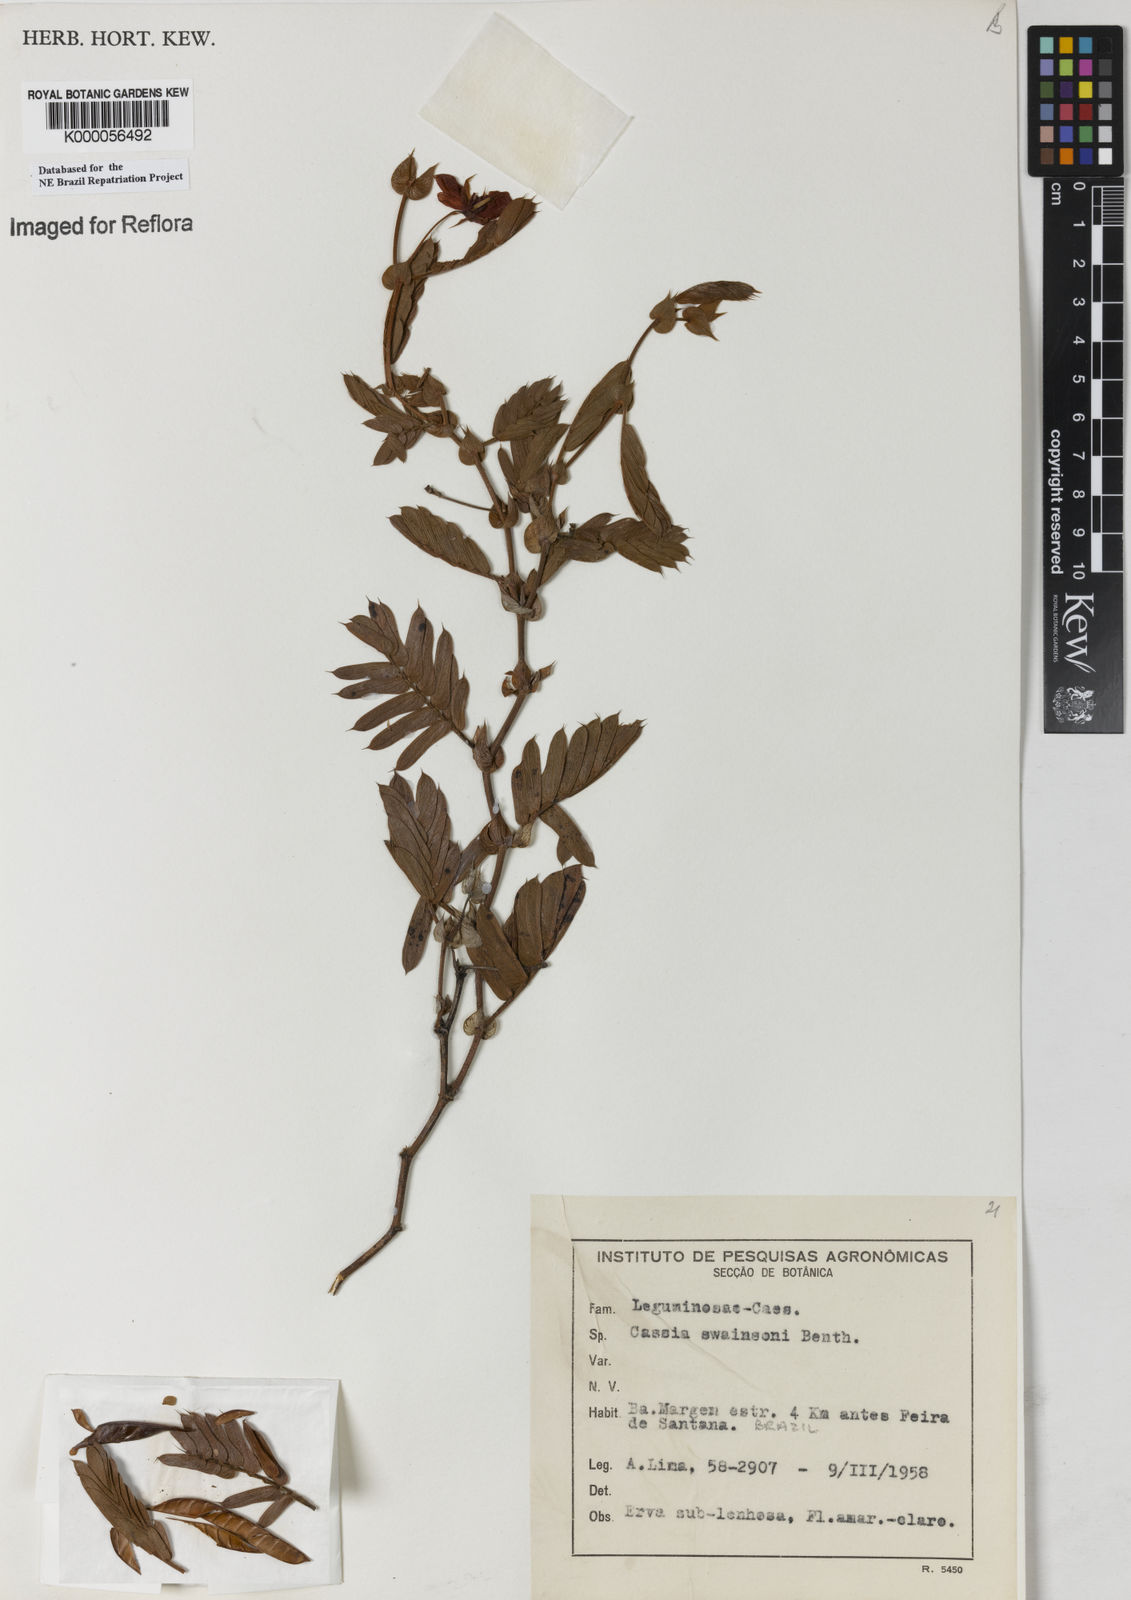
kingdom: Plantae
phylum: Tracheophyta
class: Magnoliopsida
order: Fabales
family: Fabaceae
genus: Chamaecrista
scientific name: Chamaecrista swainsonii
